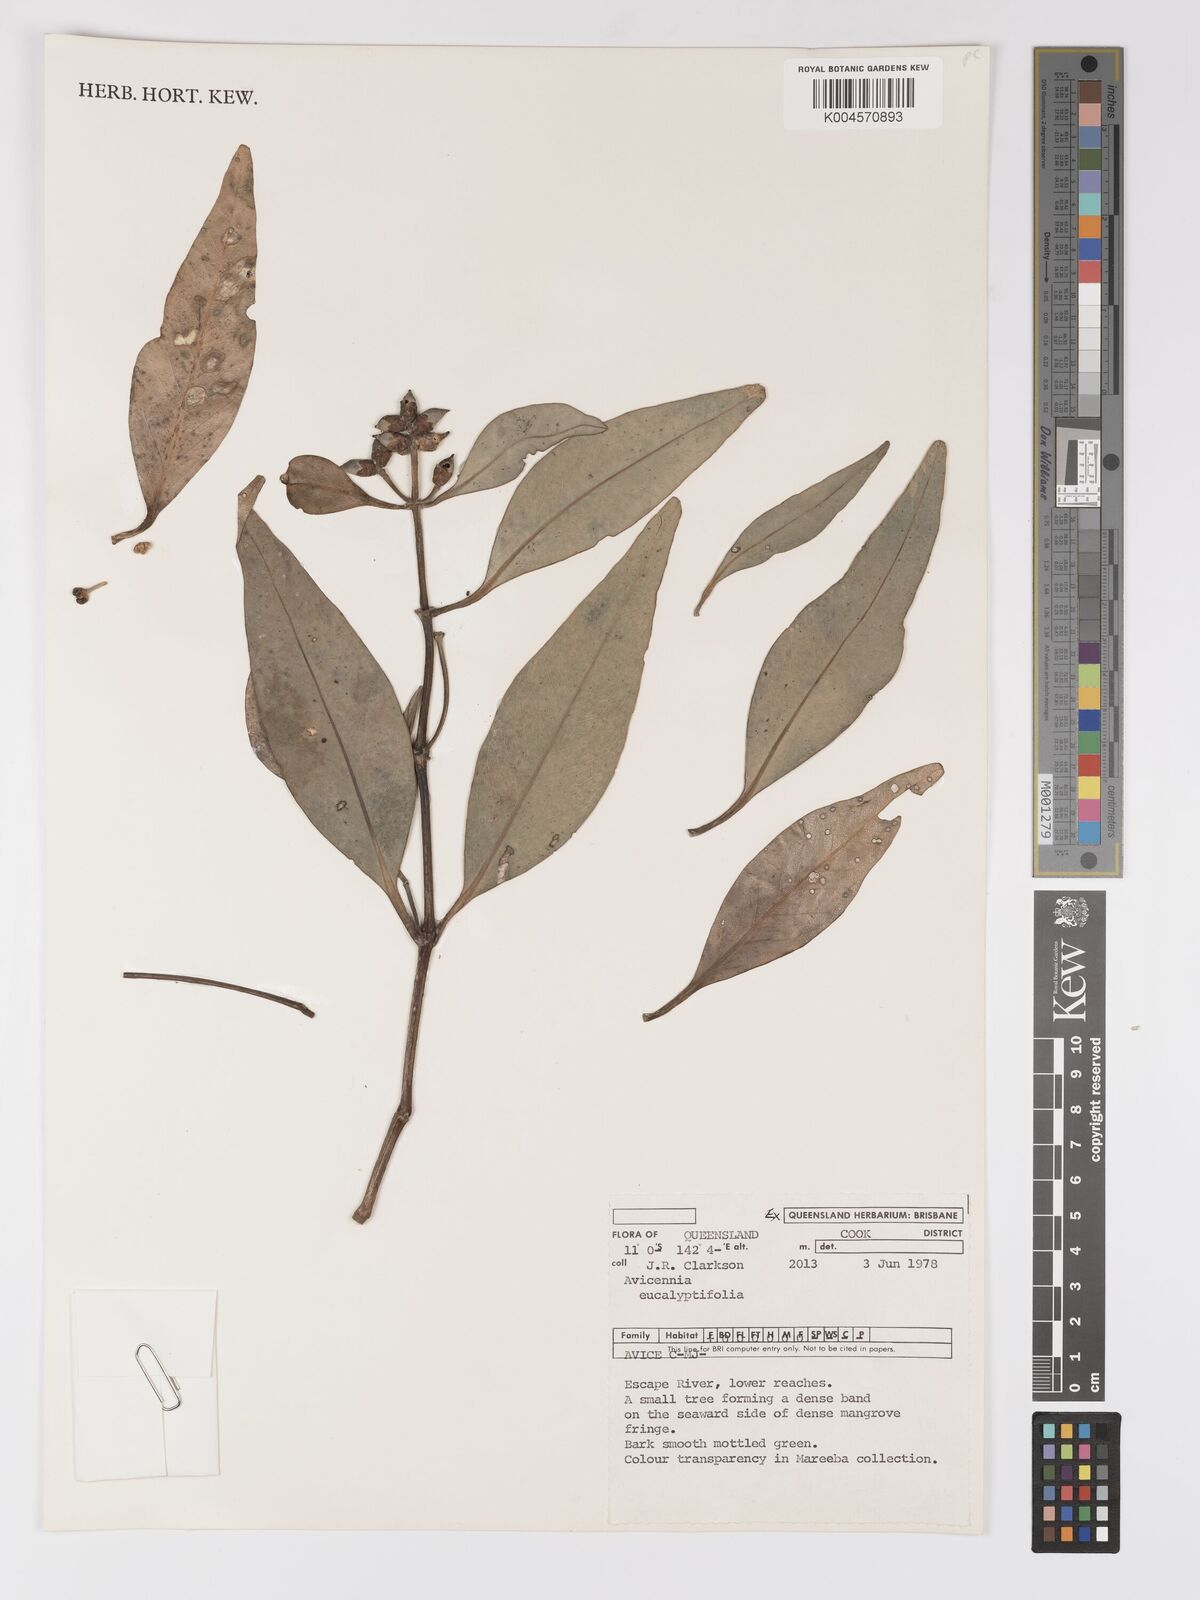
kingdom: Plantae
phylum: Tracheophyta
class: Magnoliopsida
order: Lamiales
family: Acanthaceae
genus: Avicennia
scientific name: Avicennia marina
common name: Gray mangrove
